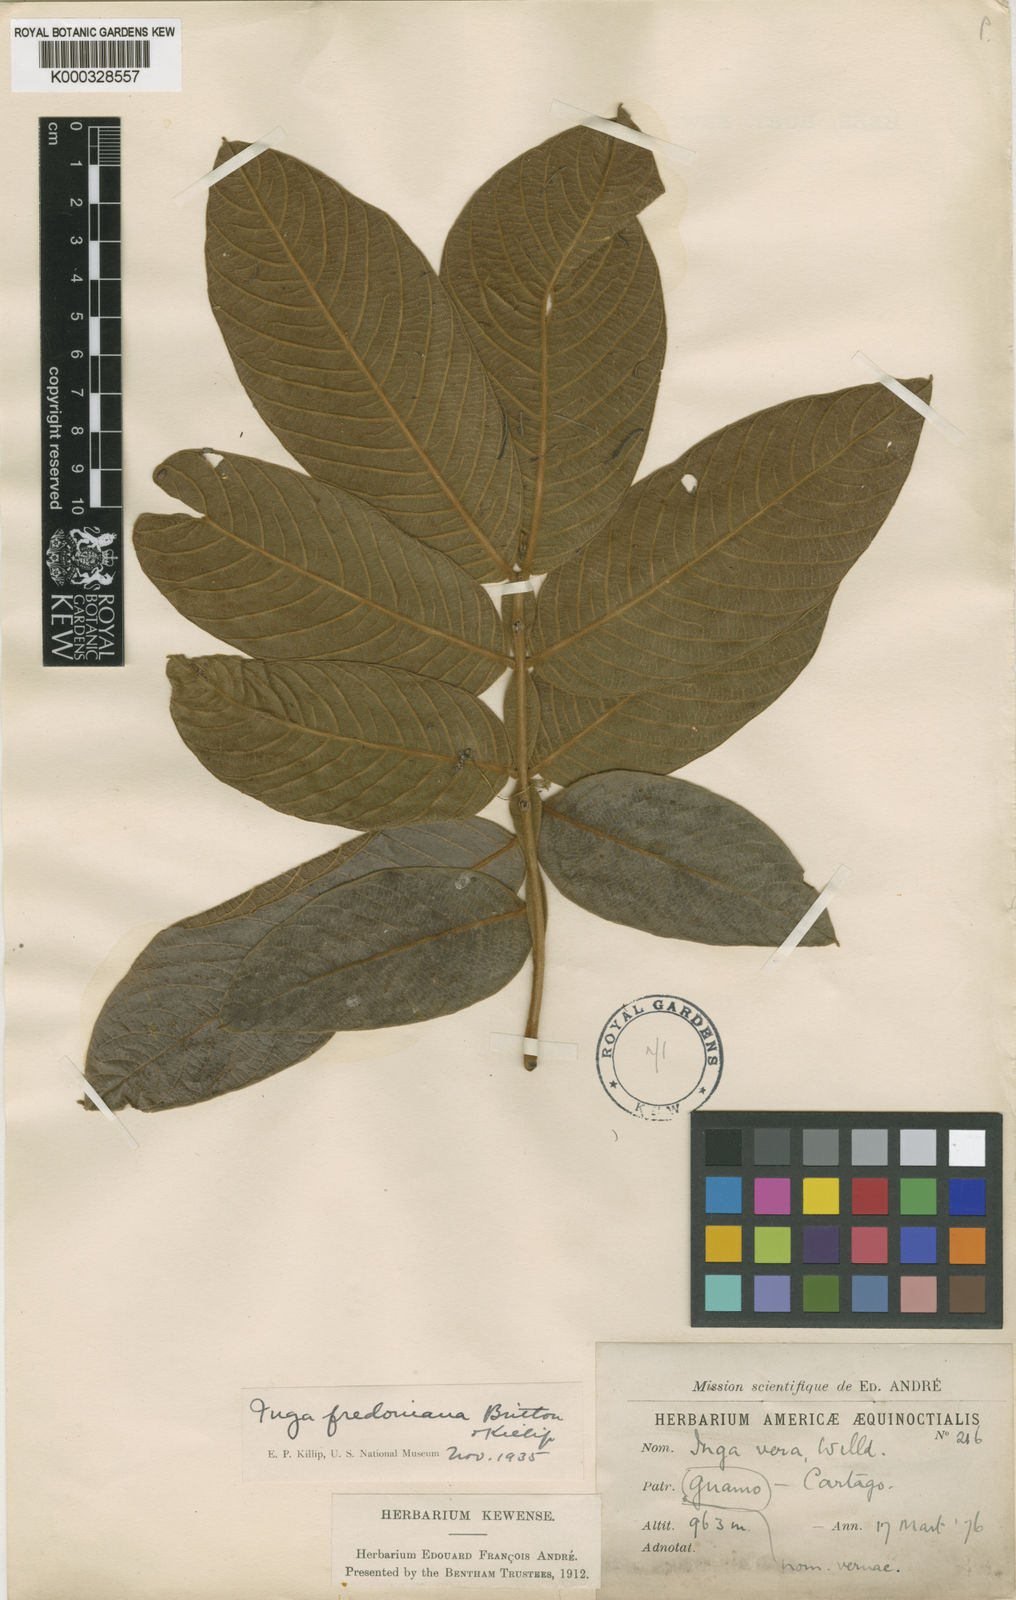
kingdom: Plantae
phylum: Tracheophyta
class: Magnoliopsida
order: Fabales
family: Fabaceae
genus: Inga
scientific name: Inga ornata
